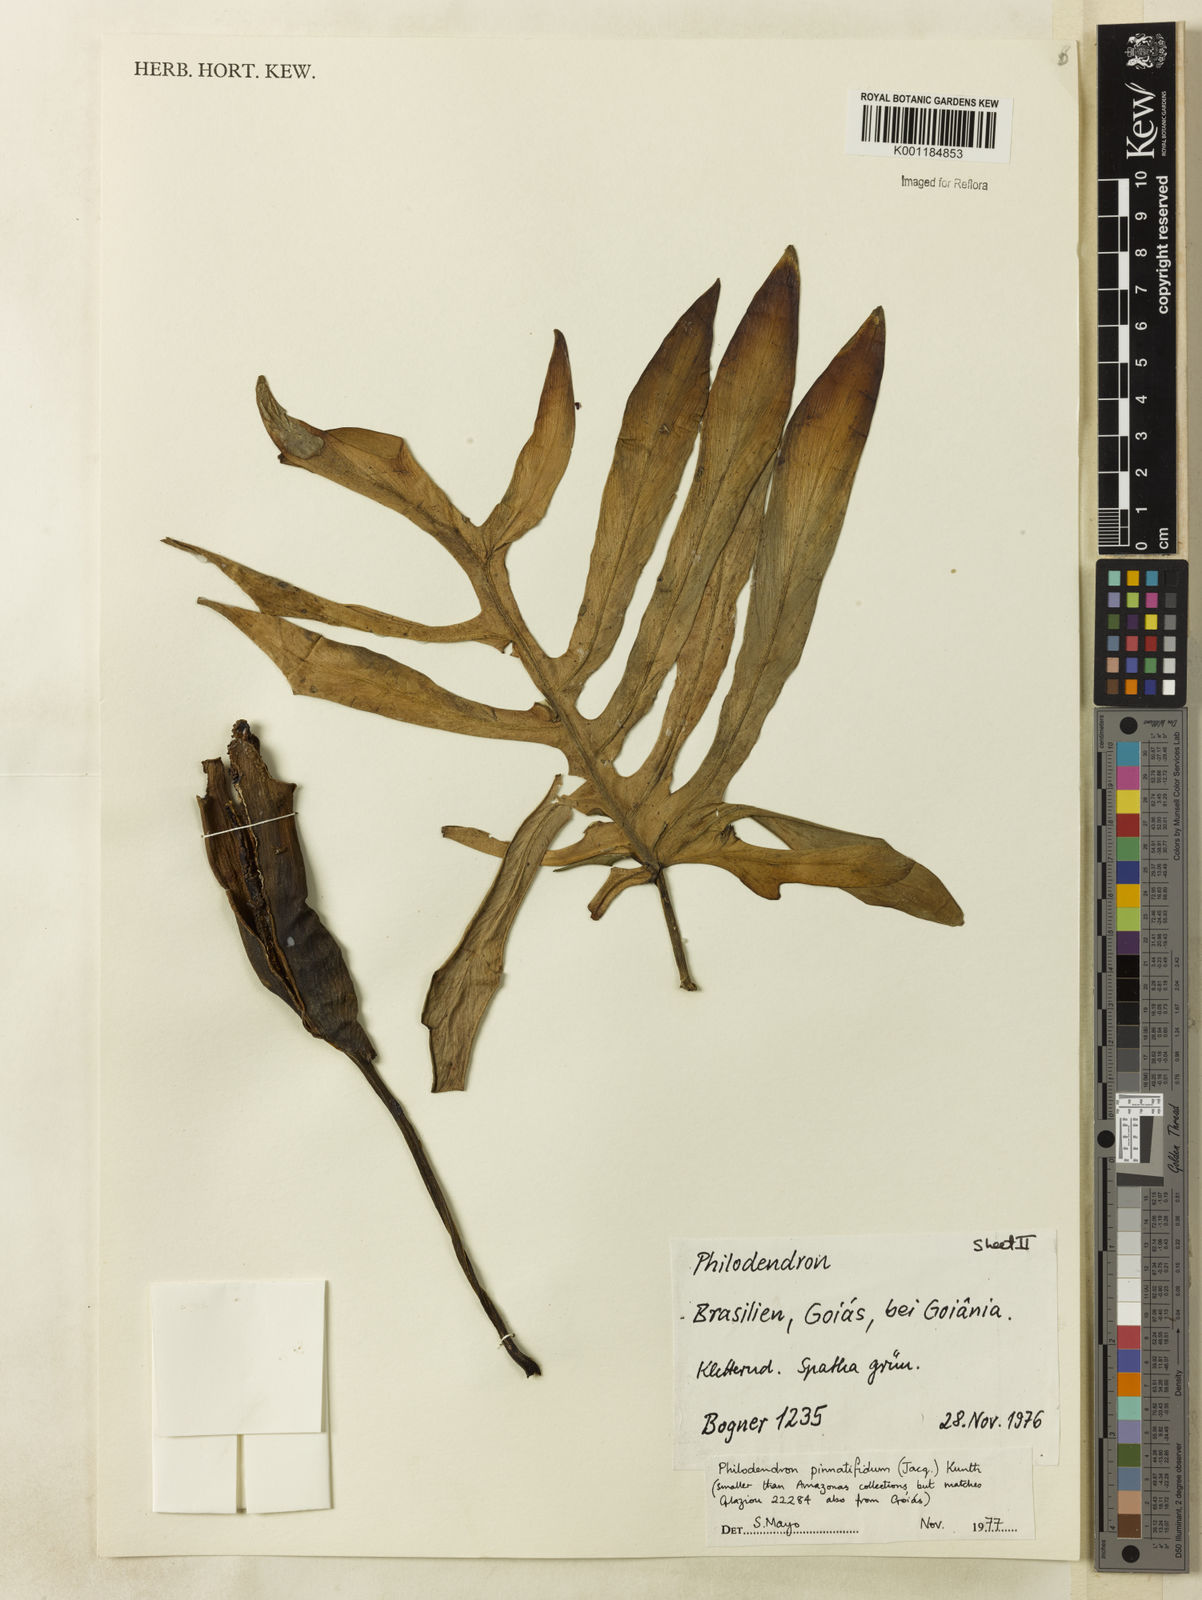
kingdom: Plantae
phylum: Tracheophyta
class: Liliopsida
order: Alismatales
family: Araceae
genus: Philodendron
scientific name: Philodendron
